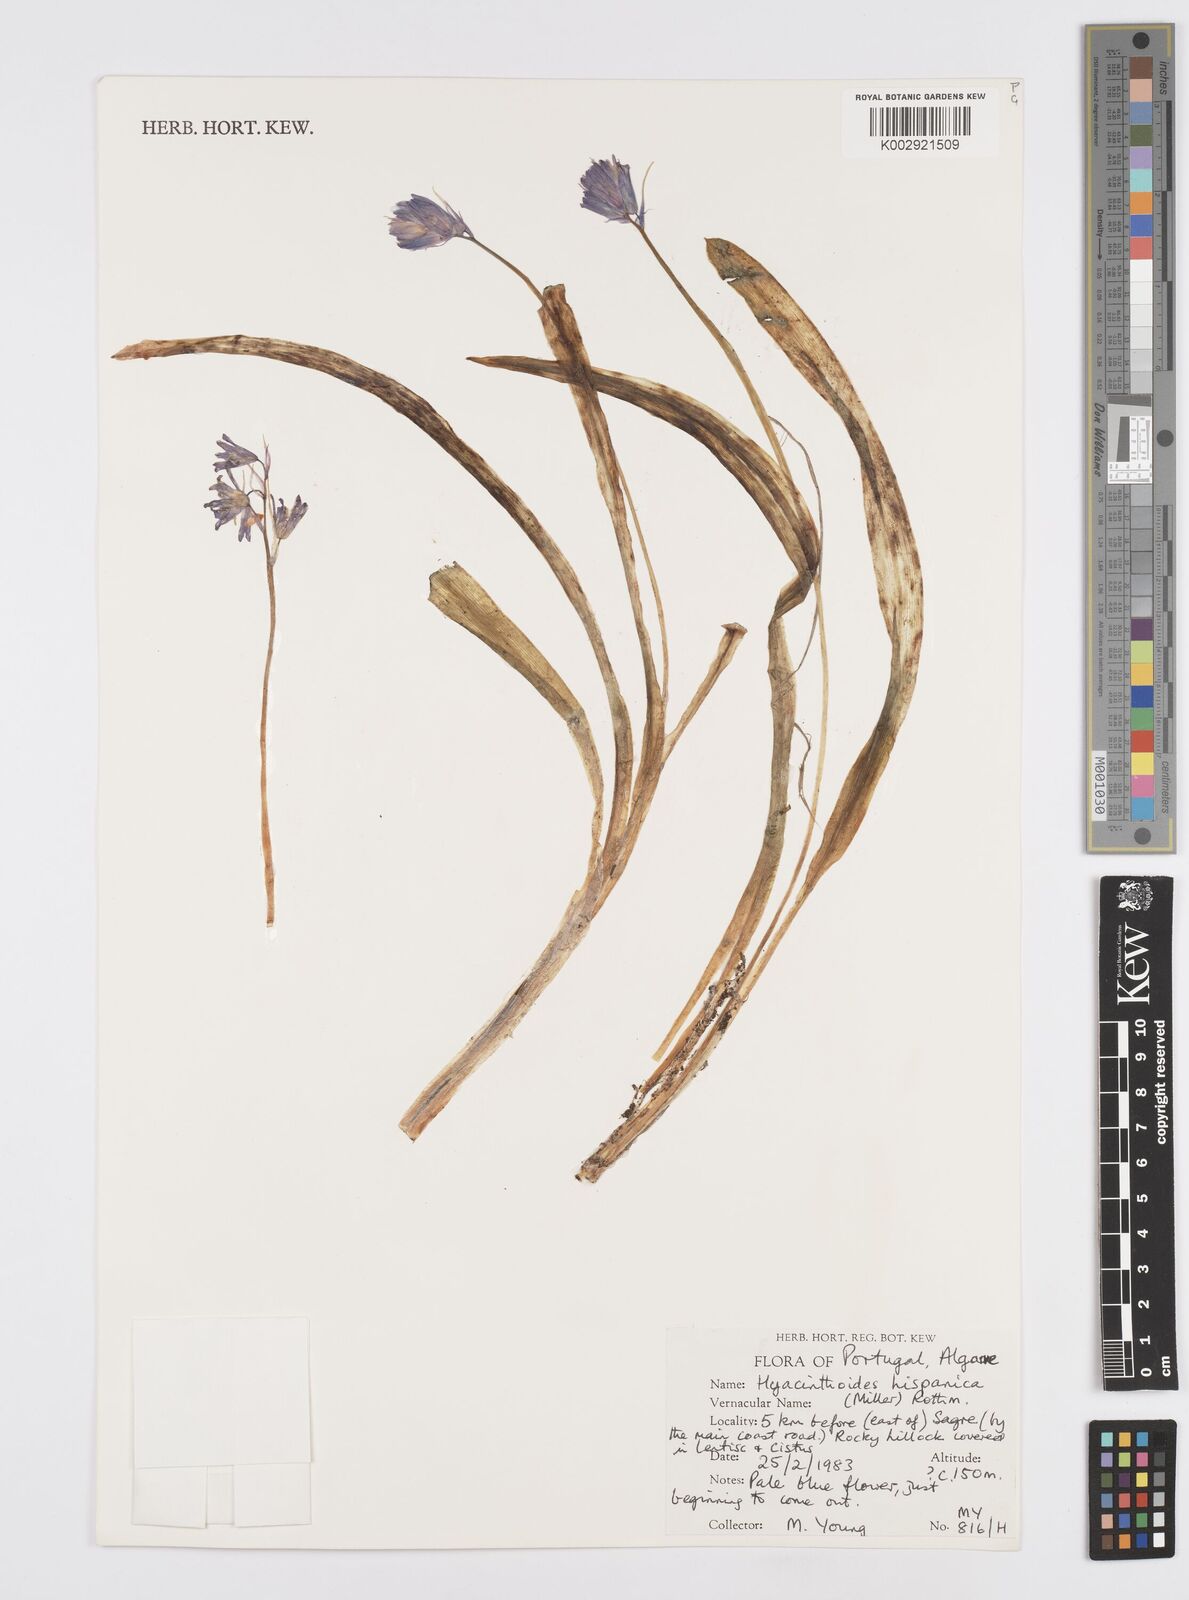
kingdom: Plantae
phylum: Tracheophyta
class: Liliopsida
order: Asparagales
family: Asparagaceae
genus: Hyacinthoides
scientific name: Hyacinthoides hispanica
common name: Spanish bluebell
